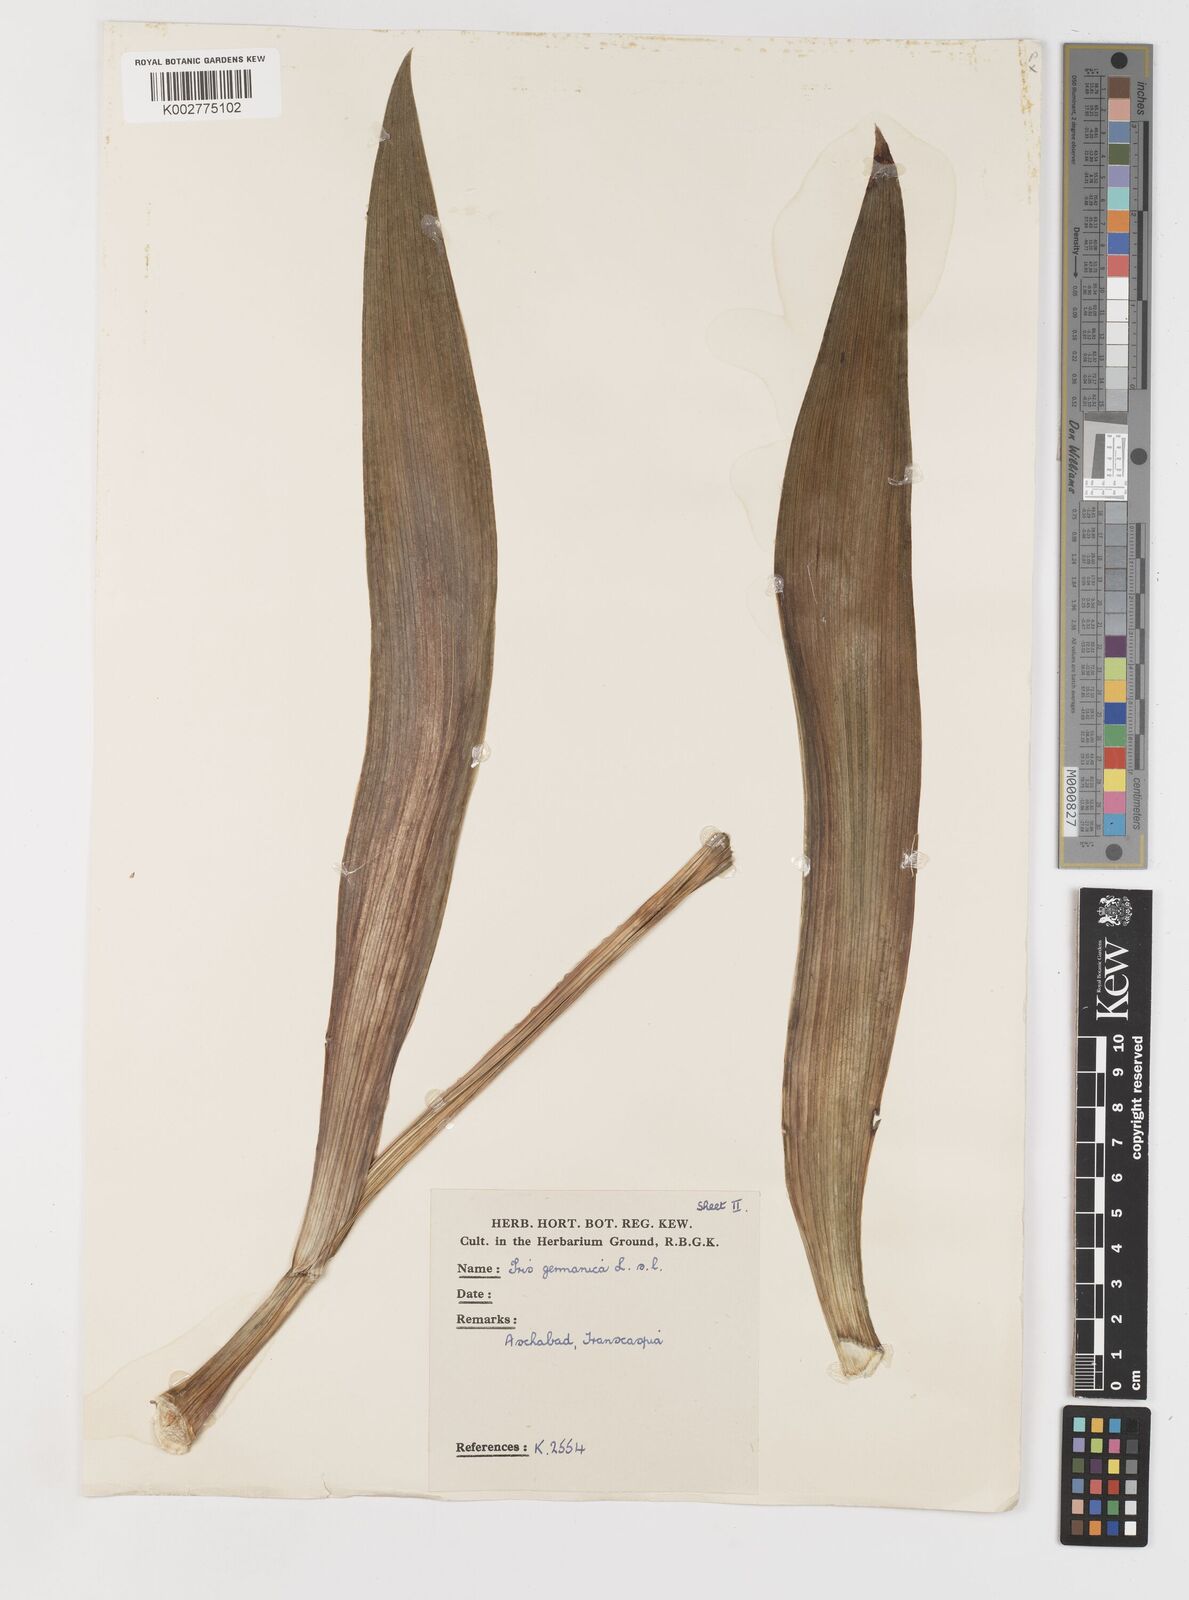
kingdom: Plantae
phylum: Tracheophyta
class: Liliopsida
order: Asparagales
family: Iridaceae
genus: Iris
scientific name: Iris germanica
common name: German iris
